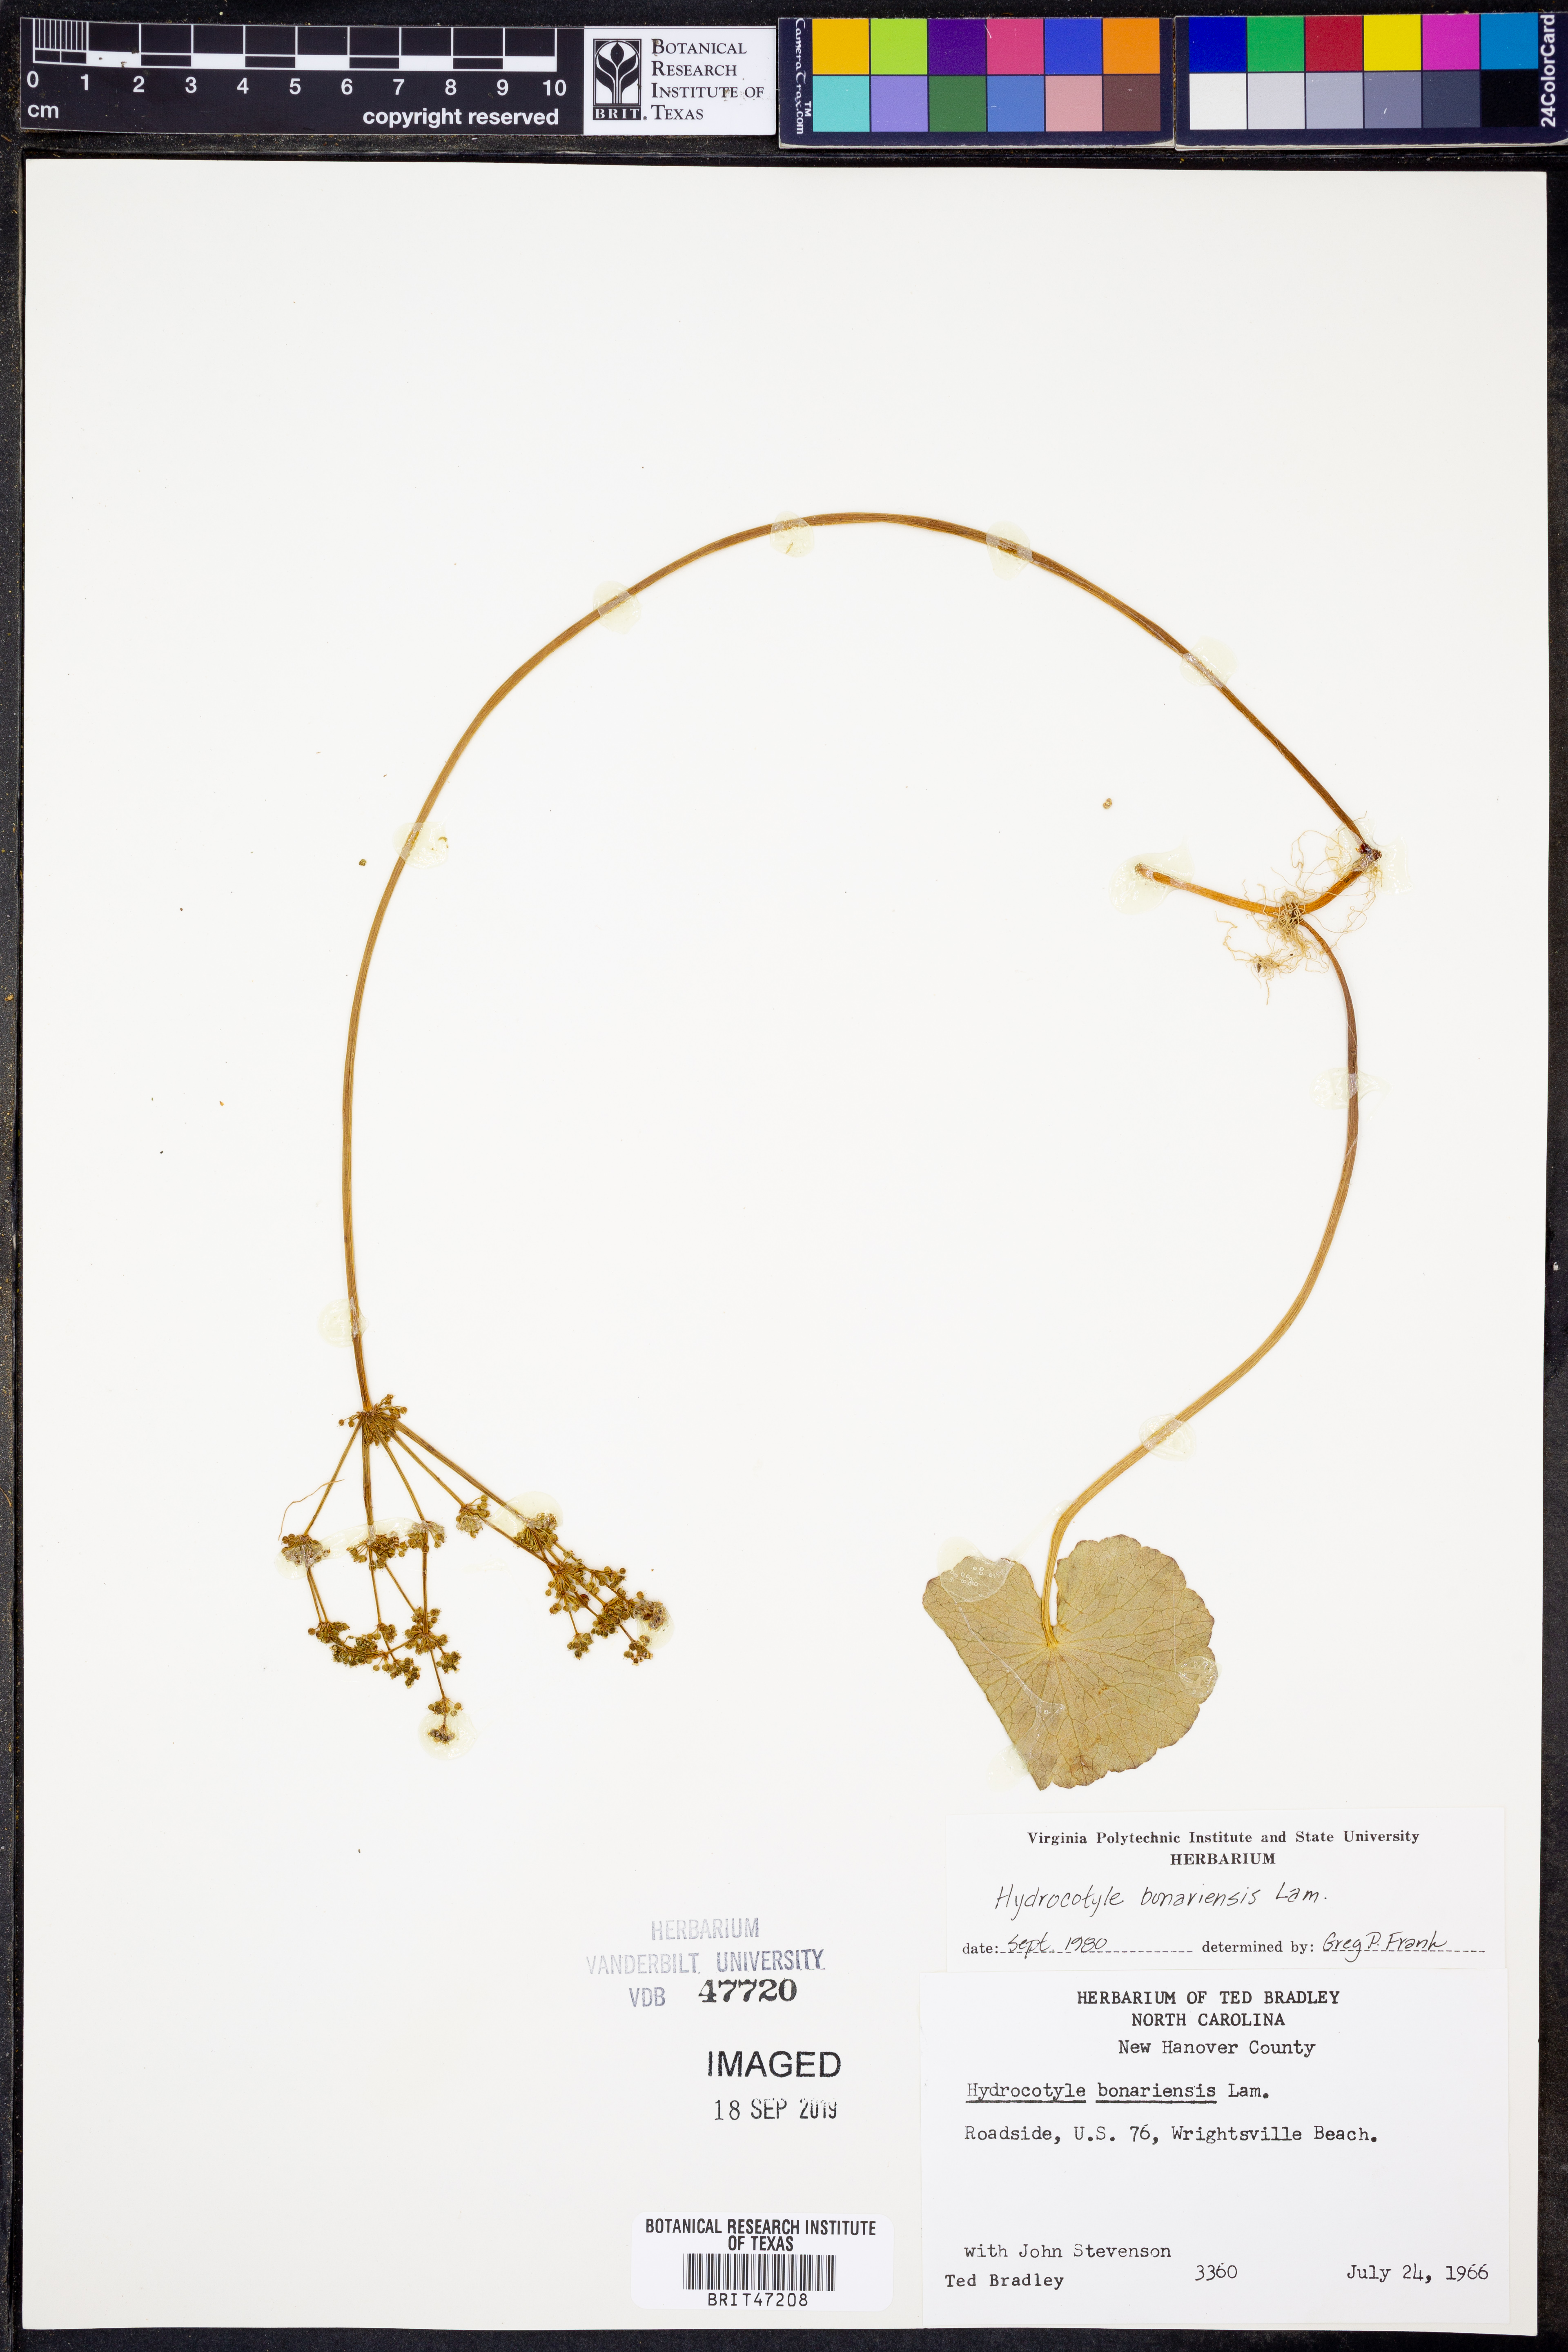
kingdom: Plantae
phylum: Tracheophyta
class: Magnoliopsida
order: Apiales
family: Araliaceae
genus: Hydrocotyle
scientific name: Hydrocotyle bonariensis
